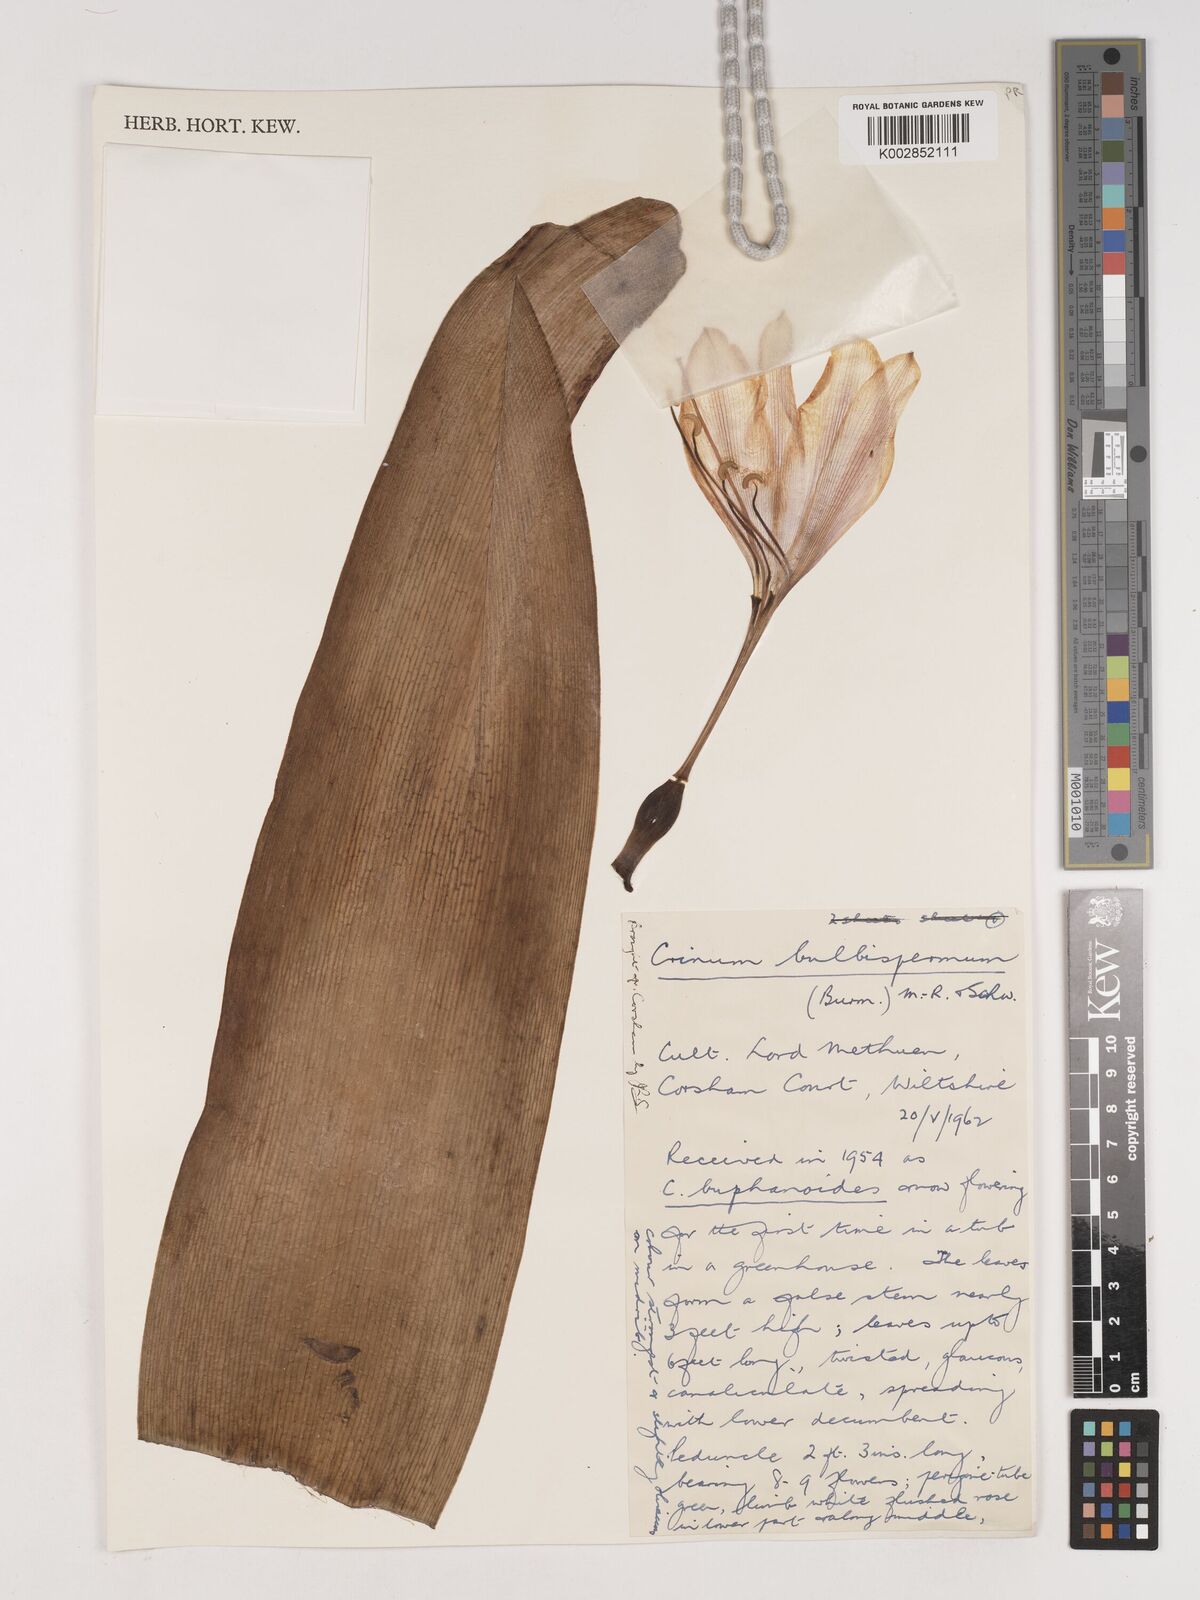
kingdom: Plantae
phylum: Tracheophyta
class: Liliopsida
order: Asparagales
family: Amaryllidaceae
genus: Crinum
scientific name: Crinum bulbispermum
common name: Hardy swamplily
